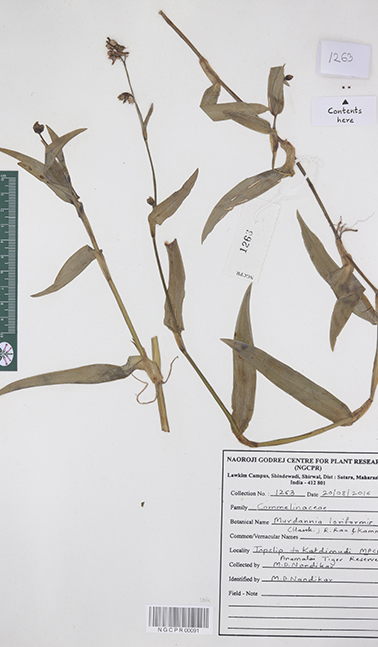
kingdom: Plantae
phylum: Tracheophyta
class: Liliopsida
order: Commelinales
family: Commelinaceae
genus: Murdannia
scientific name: Murdannia loriformis
